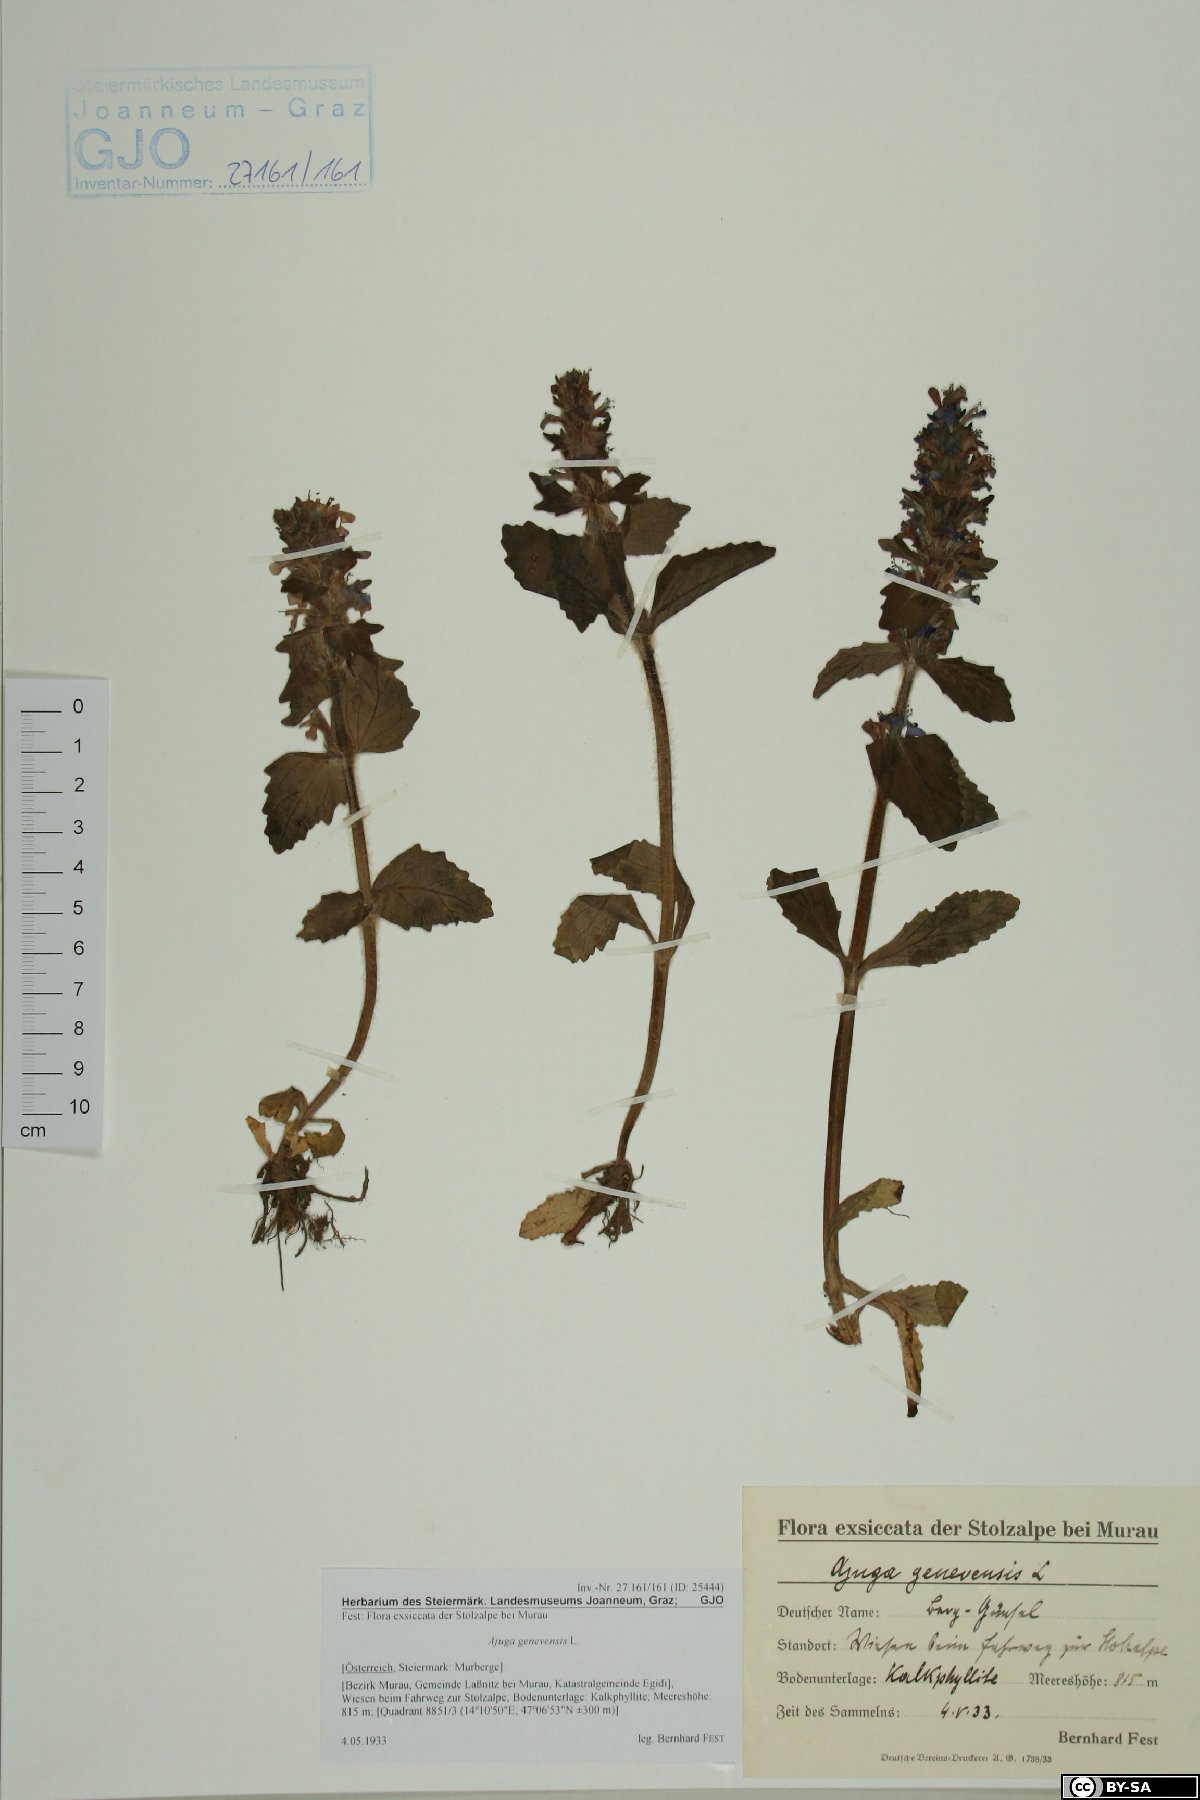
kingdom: Plantae
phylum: Tracheophyta
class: Magnoliopsida
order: Lamiales
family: Lamiaceae
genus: Ajuga
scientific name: Ajuga genevensis
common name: Blue bugle
